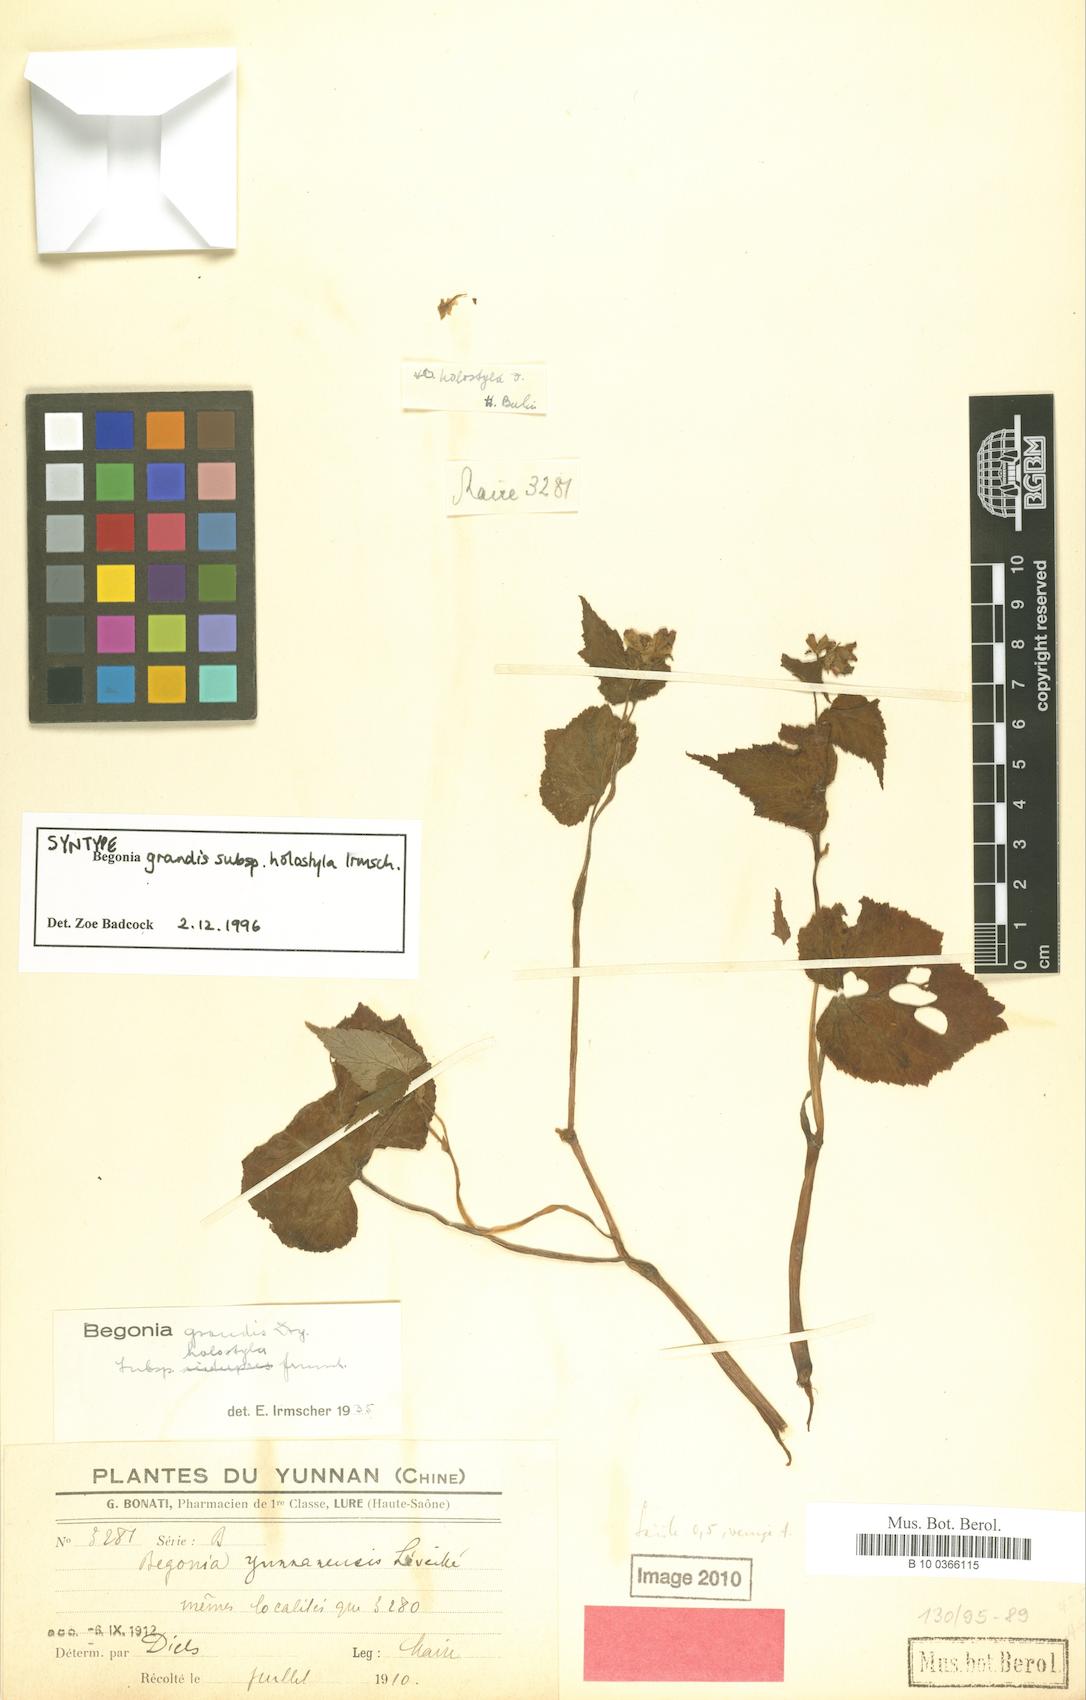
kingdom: Plantae
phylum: Tracheophyta
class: Magnoliopsida
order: Cucurbitales
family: Begoniaceae
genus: Begonia
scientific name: Begonia grandis
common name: Hardy begonia
